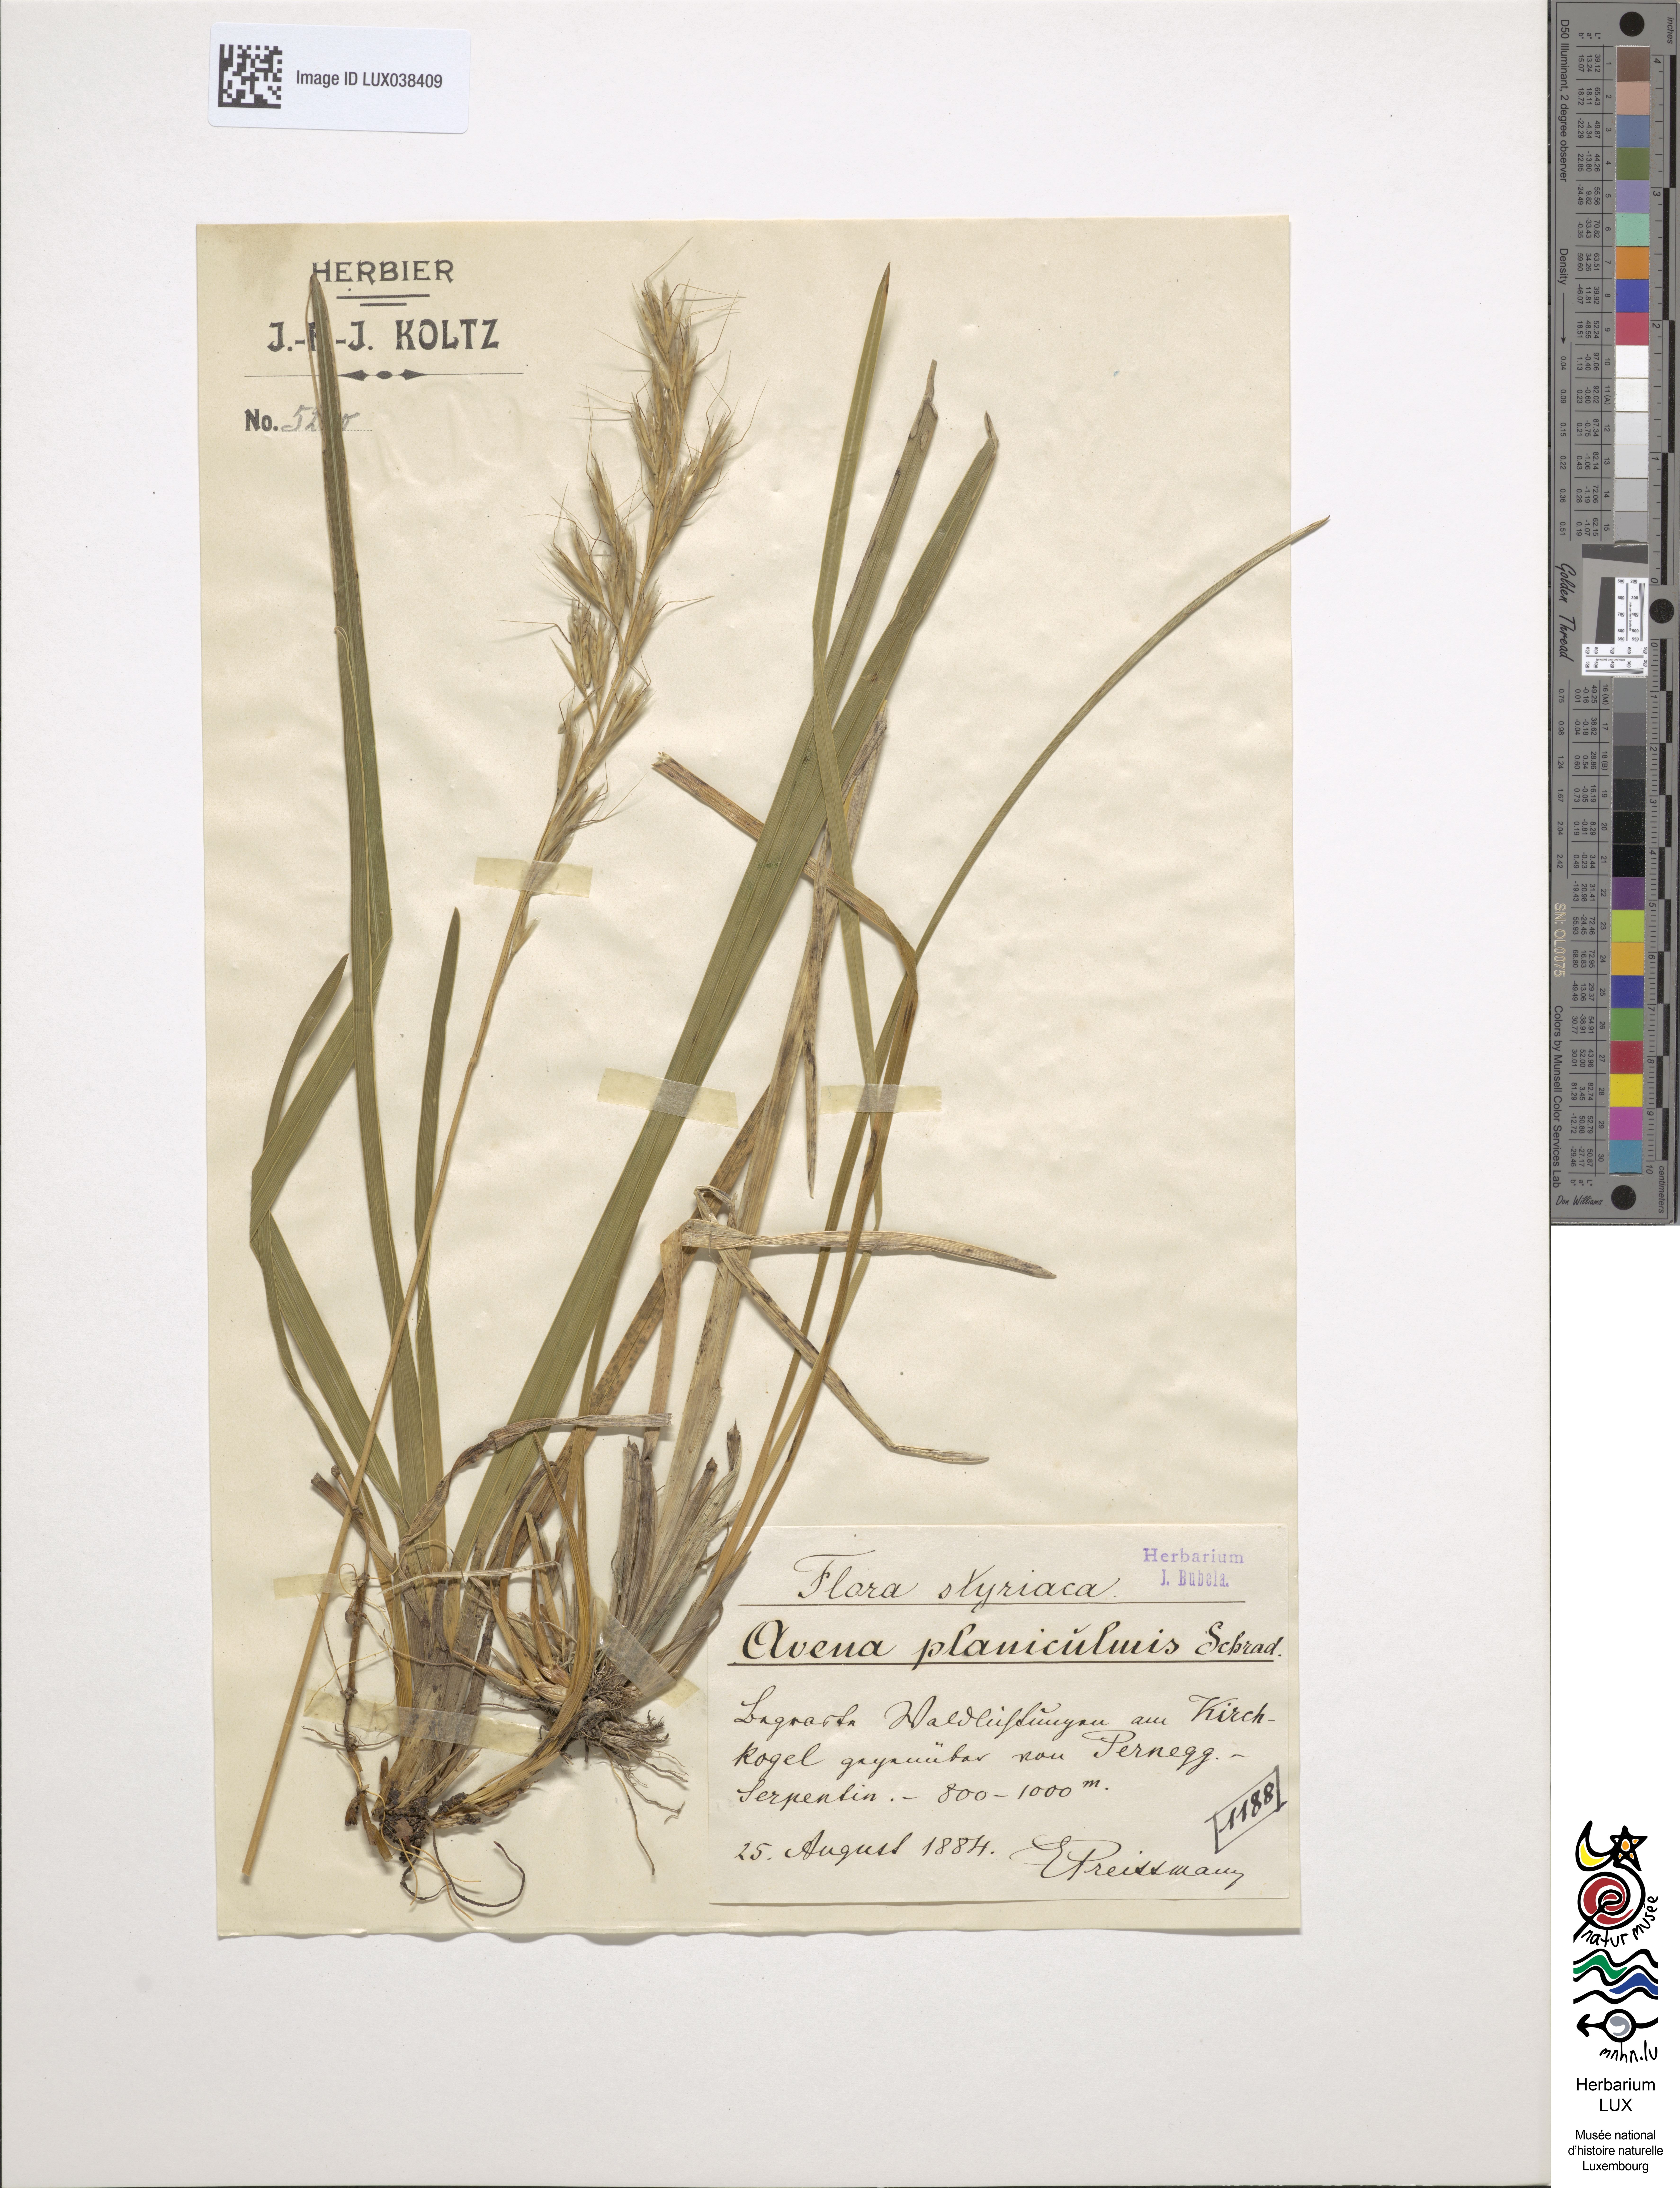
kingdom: Plantae
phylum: Tracheophyta
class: Liliopsida
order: Poales
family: Poaceae
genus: Helictochloa
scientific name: Helictochloa planiculmis
